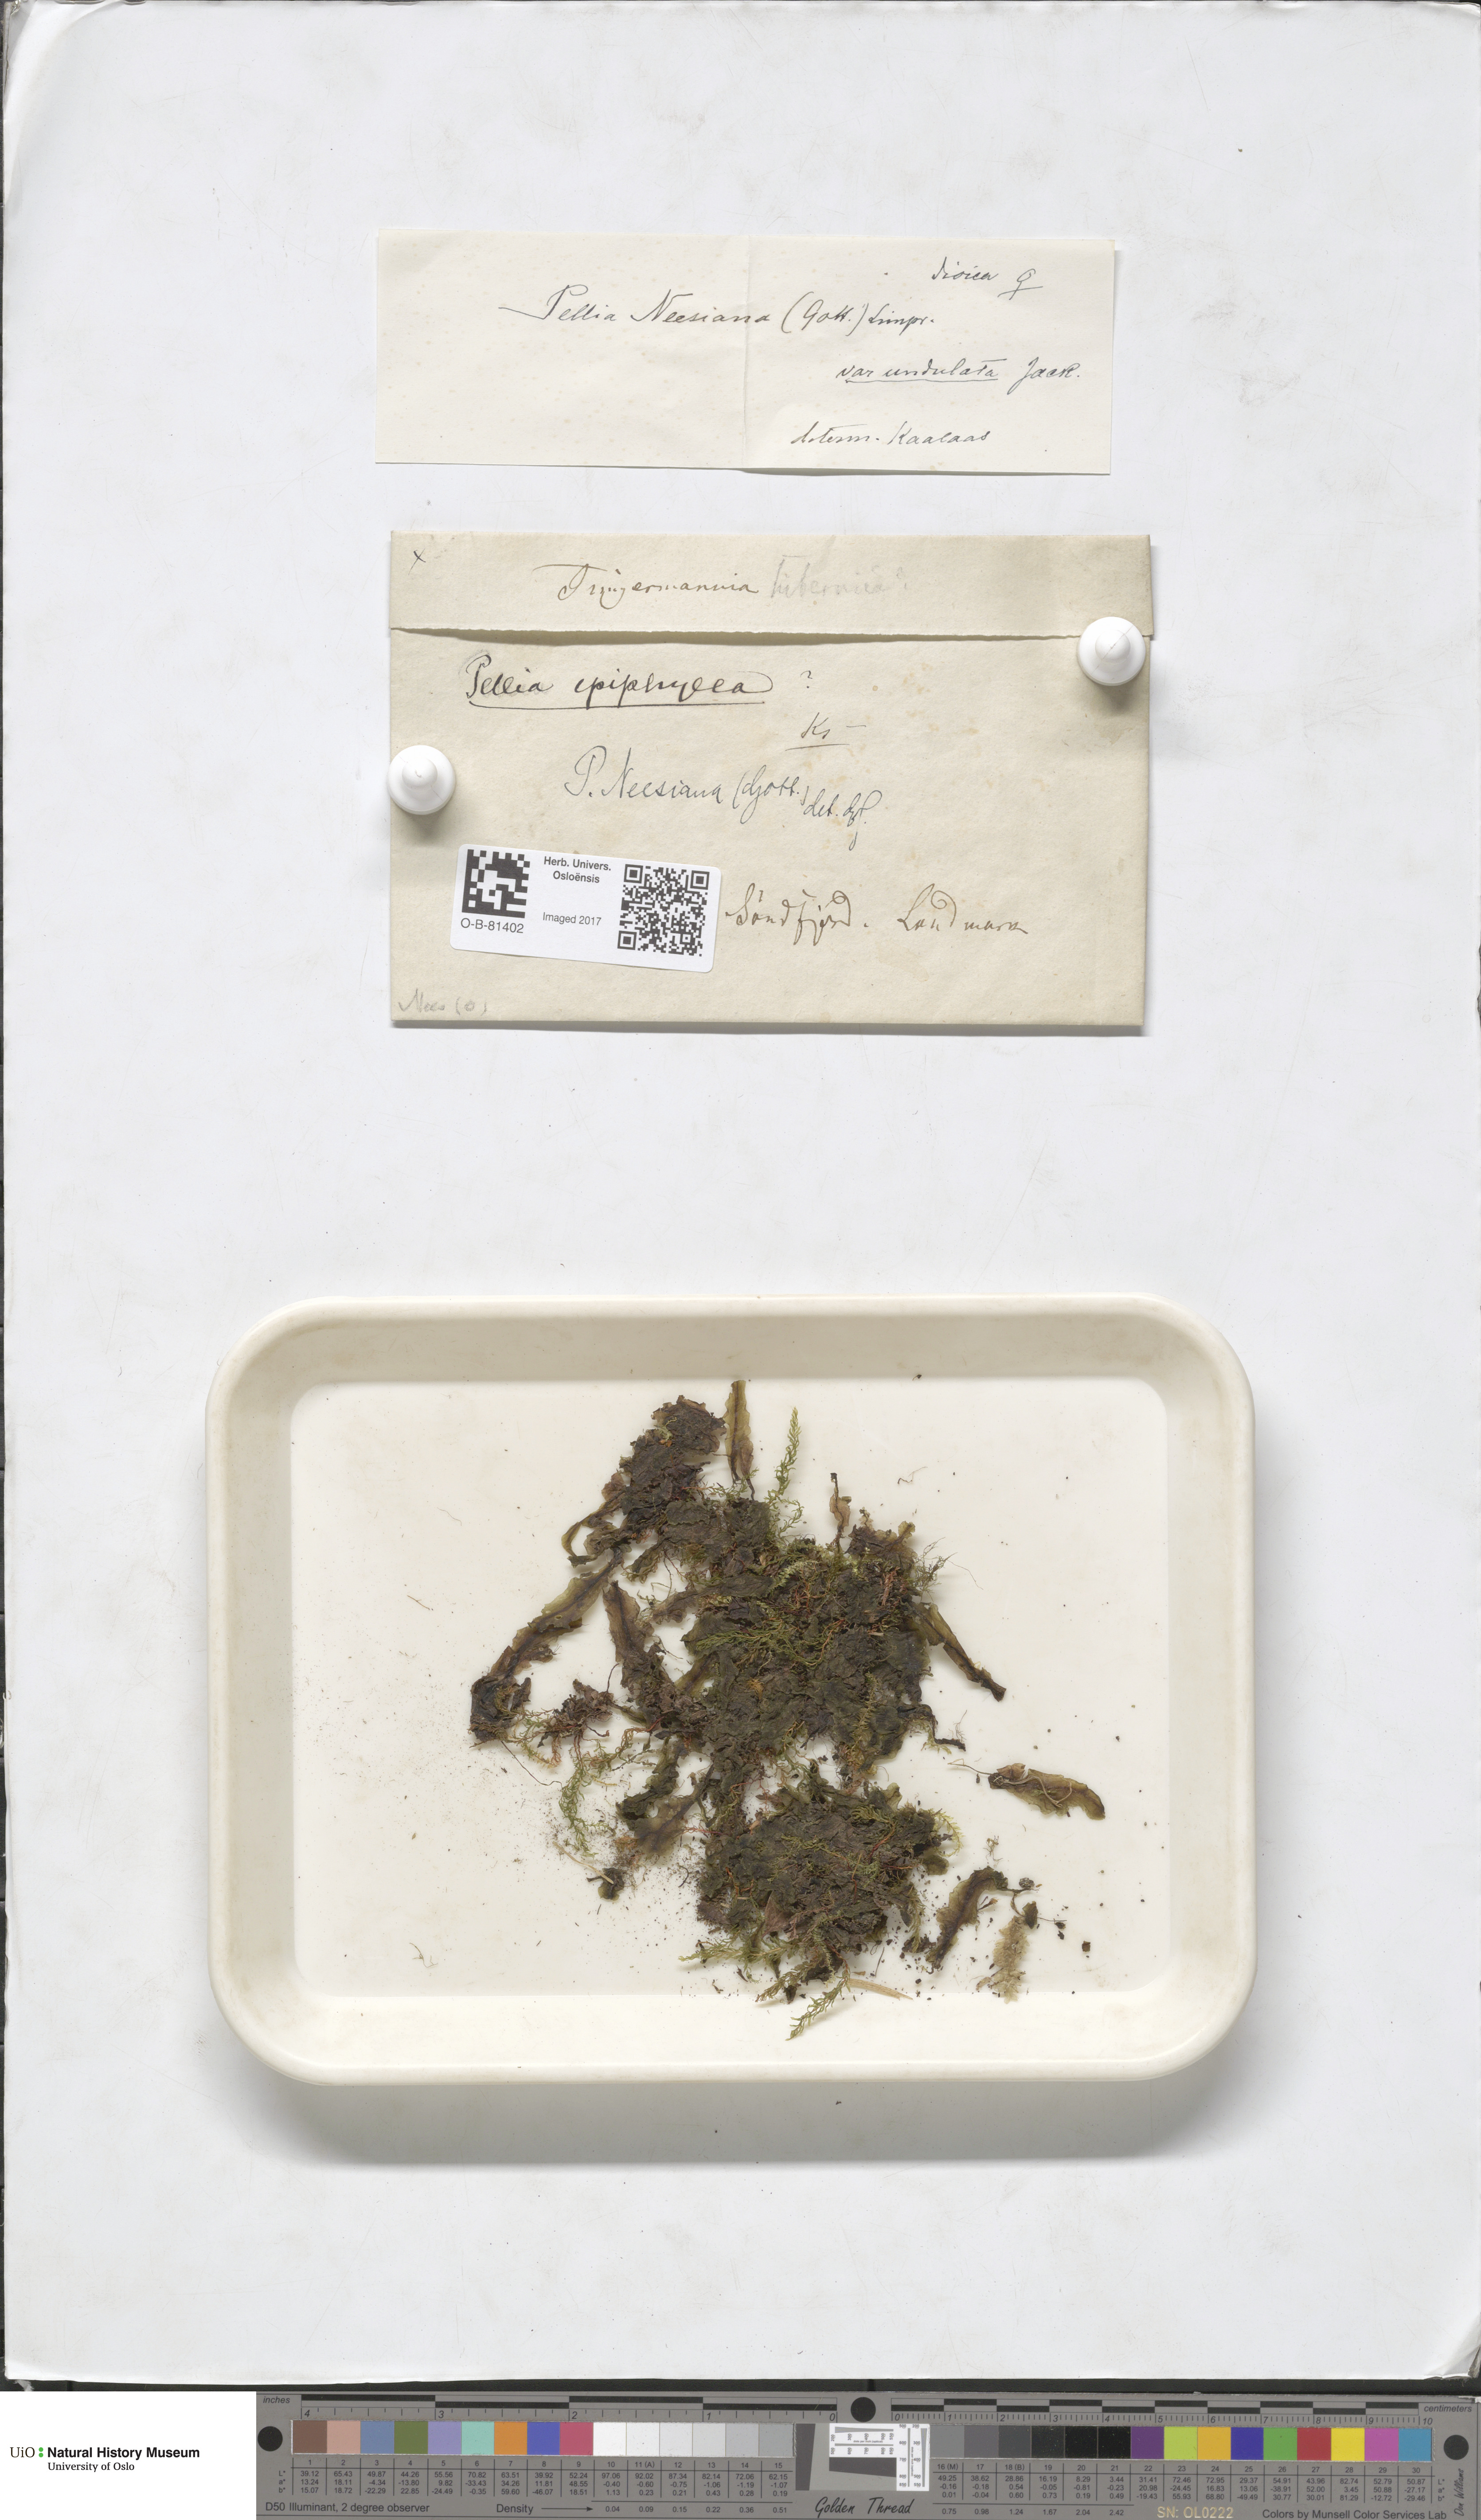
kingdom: Plantae
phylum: Marchantiophyta
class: Jungermanniopsida
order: Pelliales
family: Pelliaceae
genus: Pellia
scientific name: Pellia neesiana
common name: Nees  pellia
